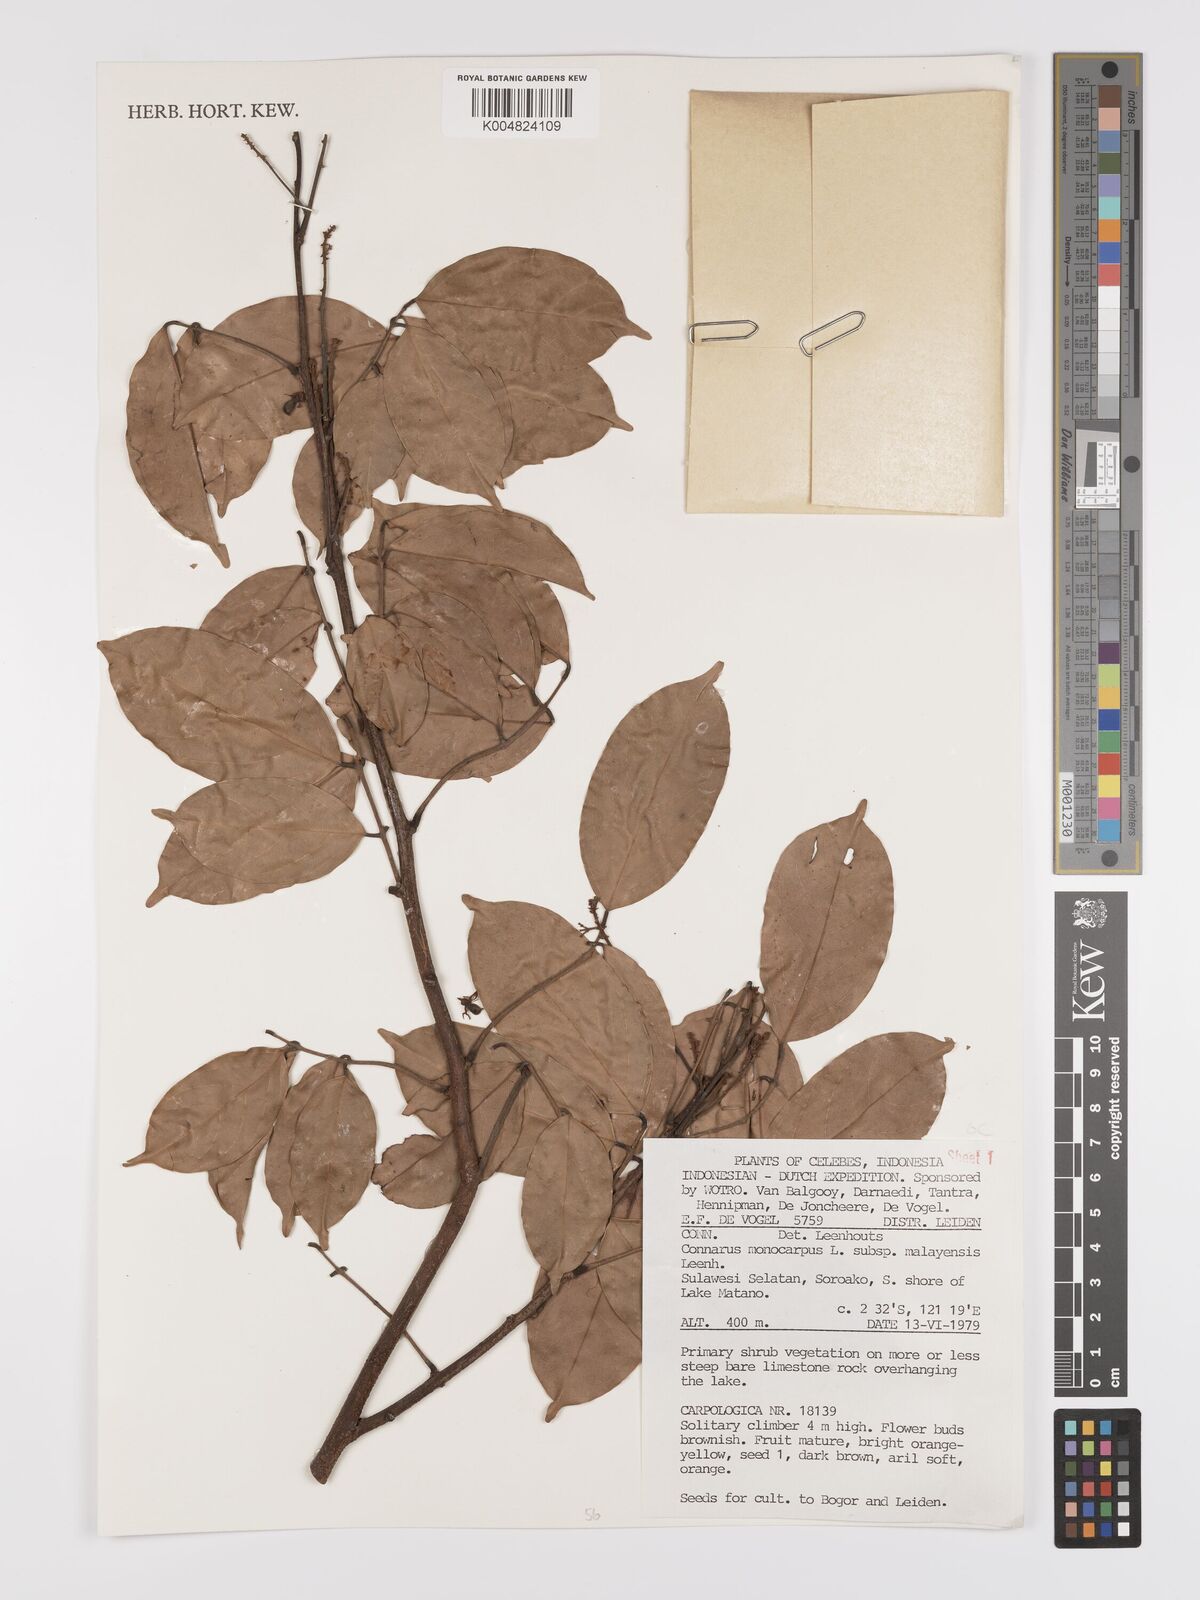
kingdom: Plantae
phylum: Tracheophyta
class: Magnoliopsida
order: Oxalidales
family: Connaraceae
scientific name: Connaraceae
